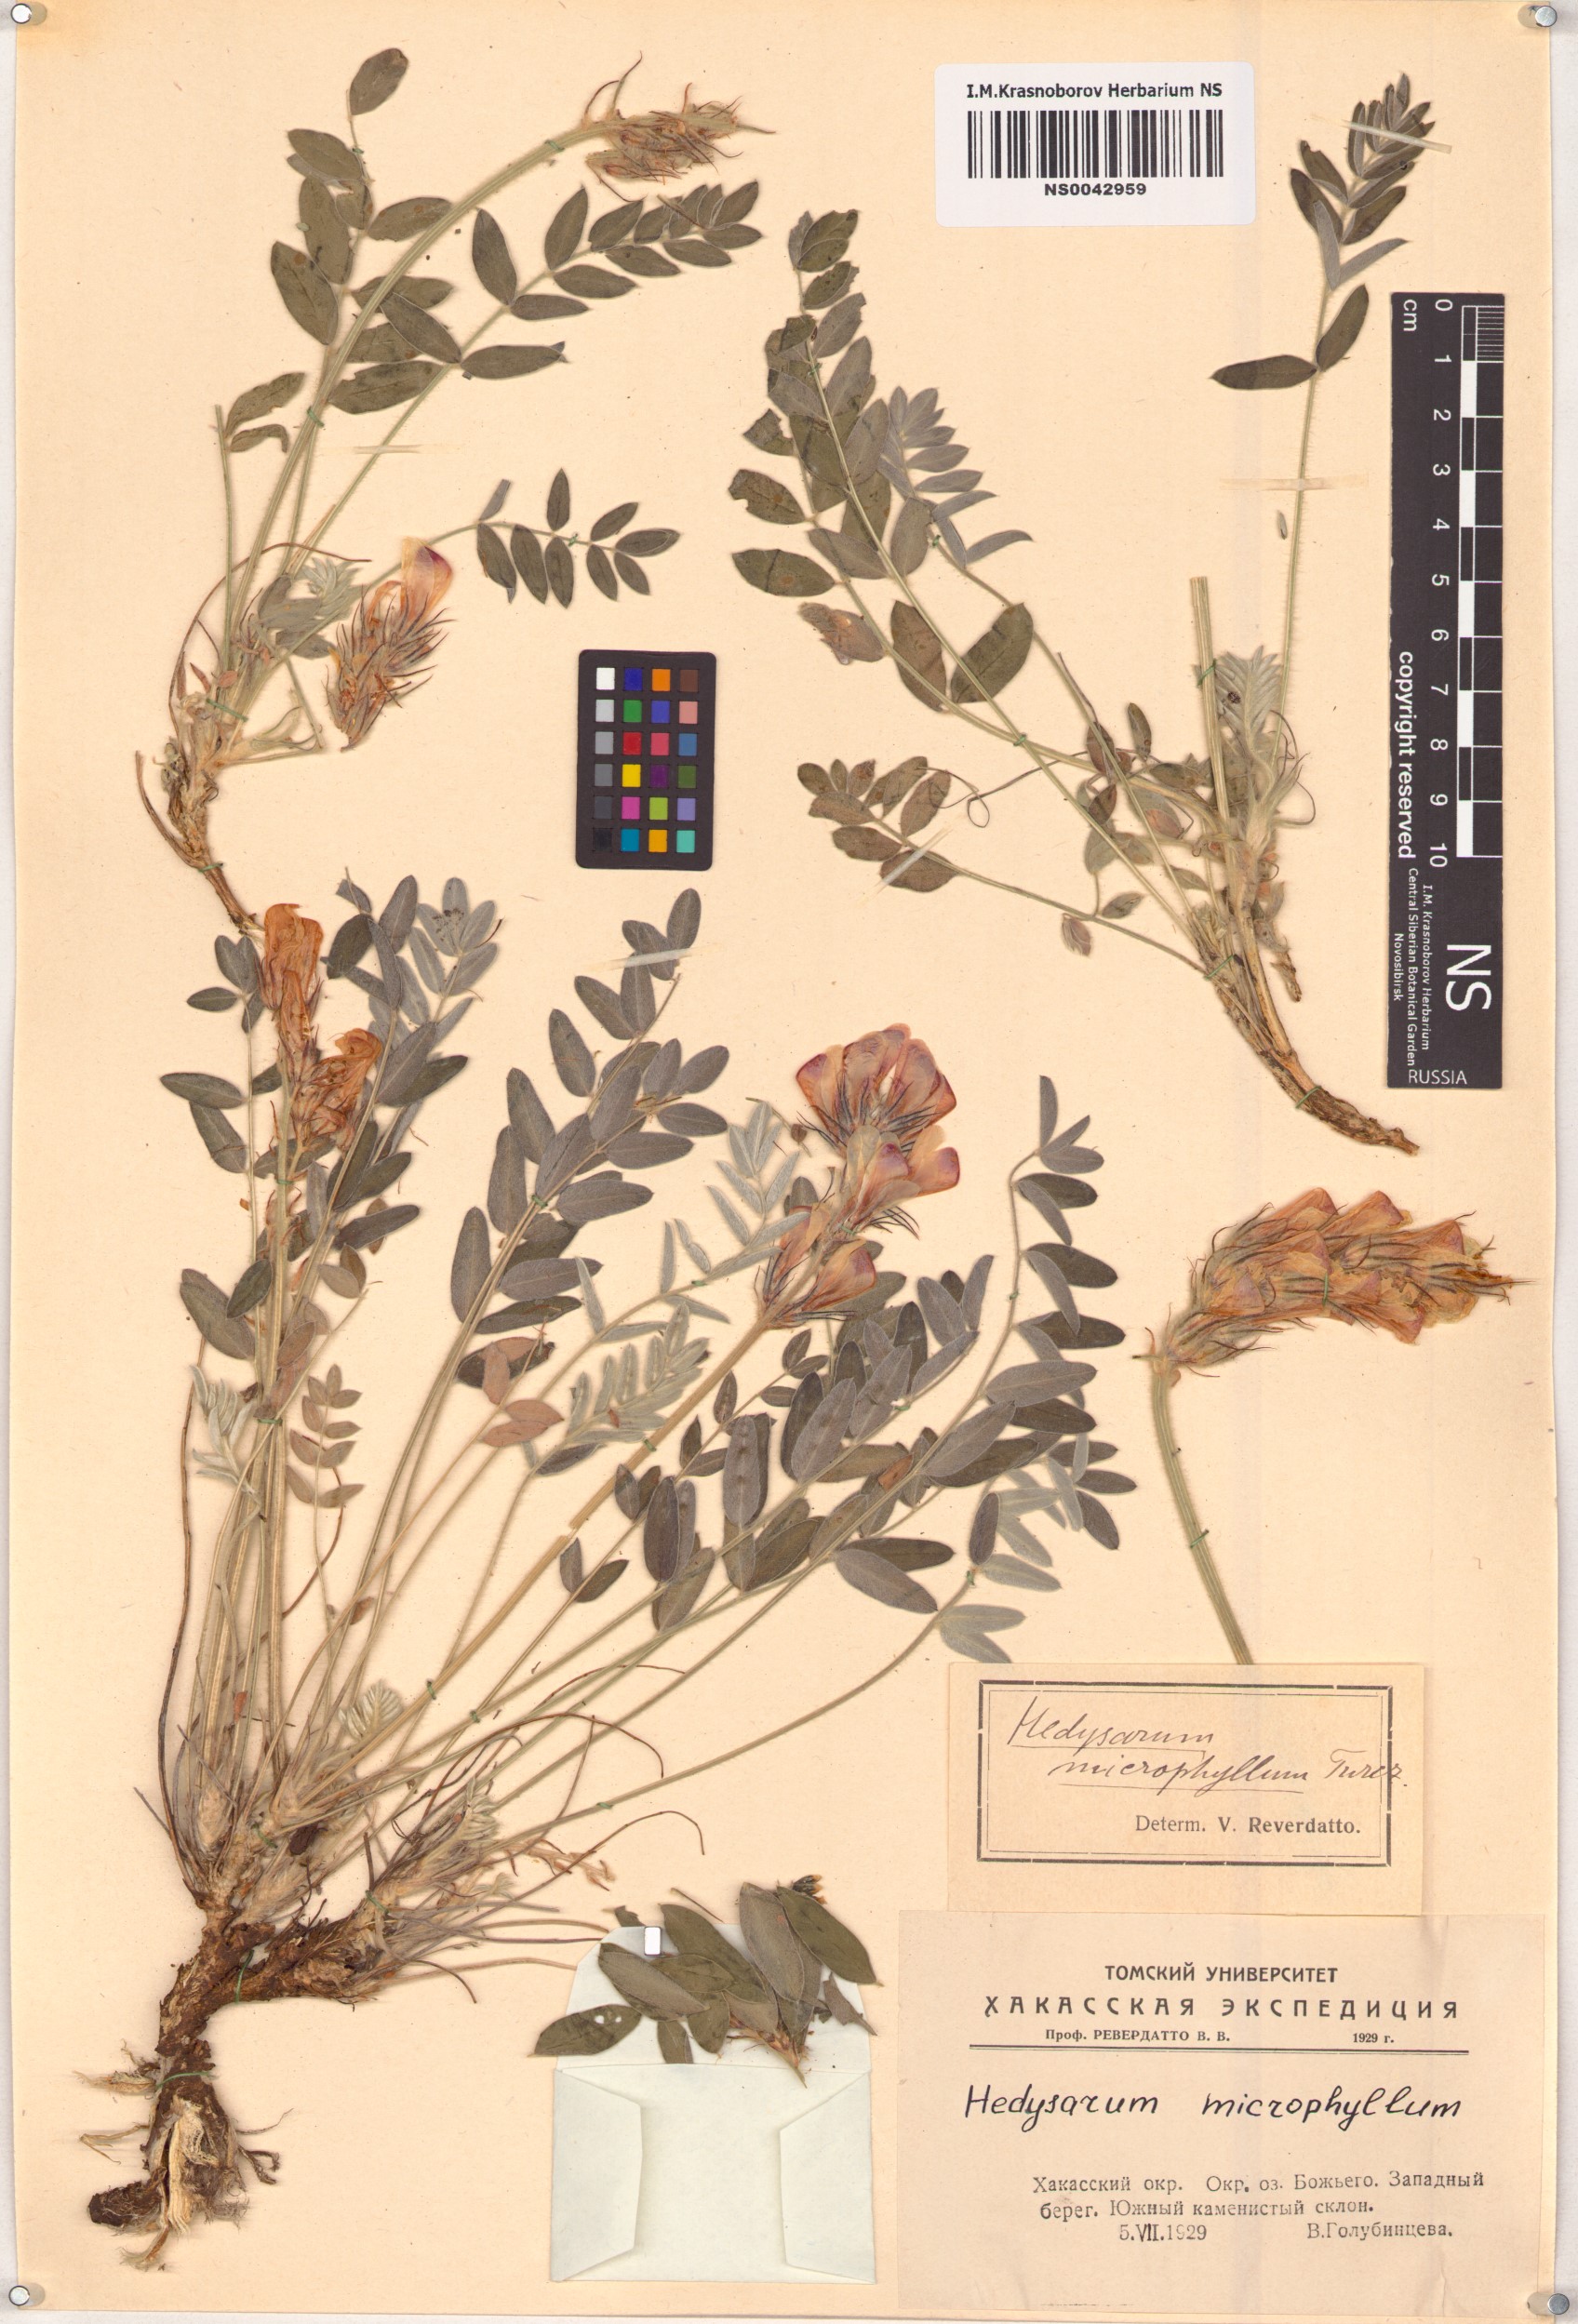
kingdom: Plantae
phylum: Tracheophyta
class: Magnoliopsida
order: Fabales
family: Fabaceae
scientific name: Fabaceae
